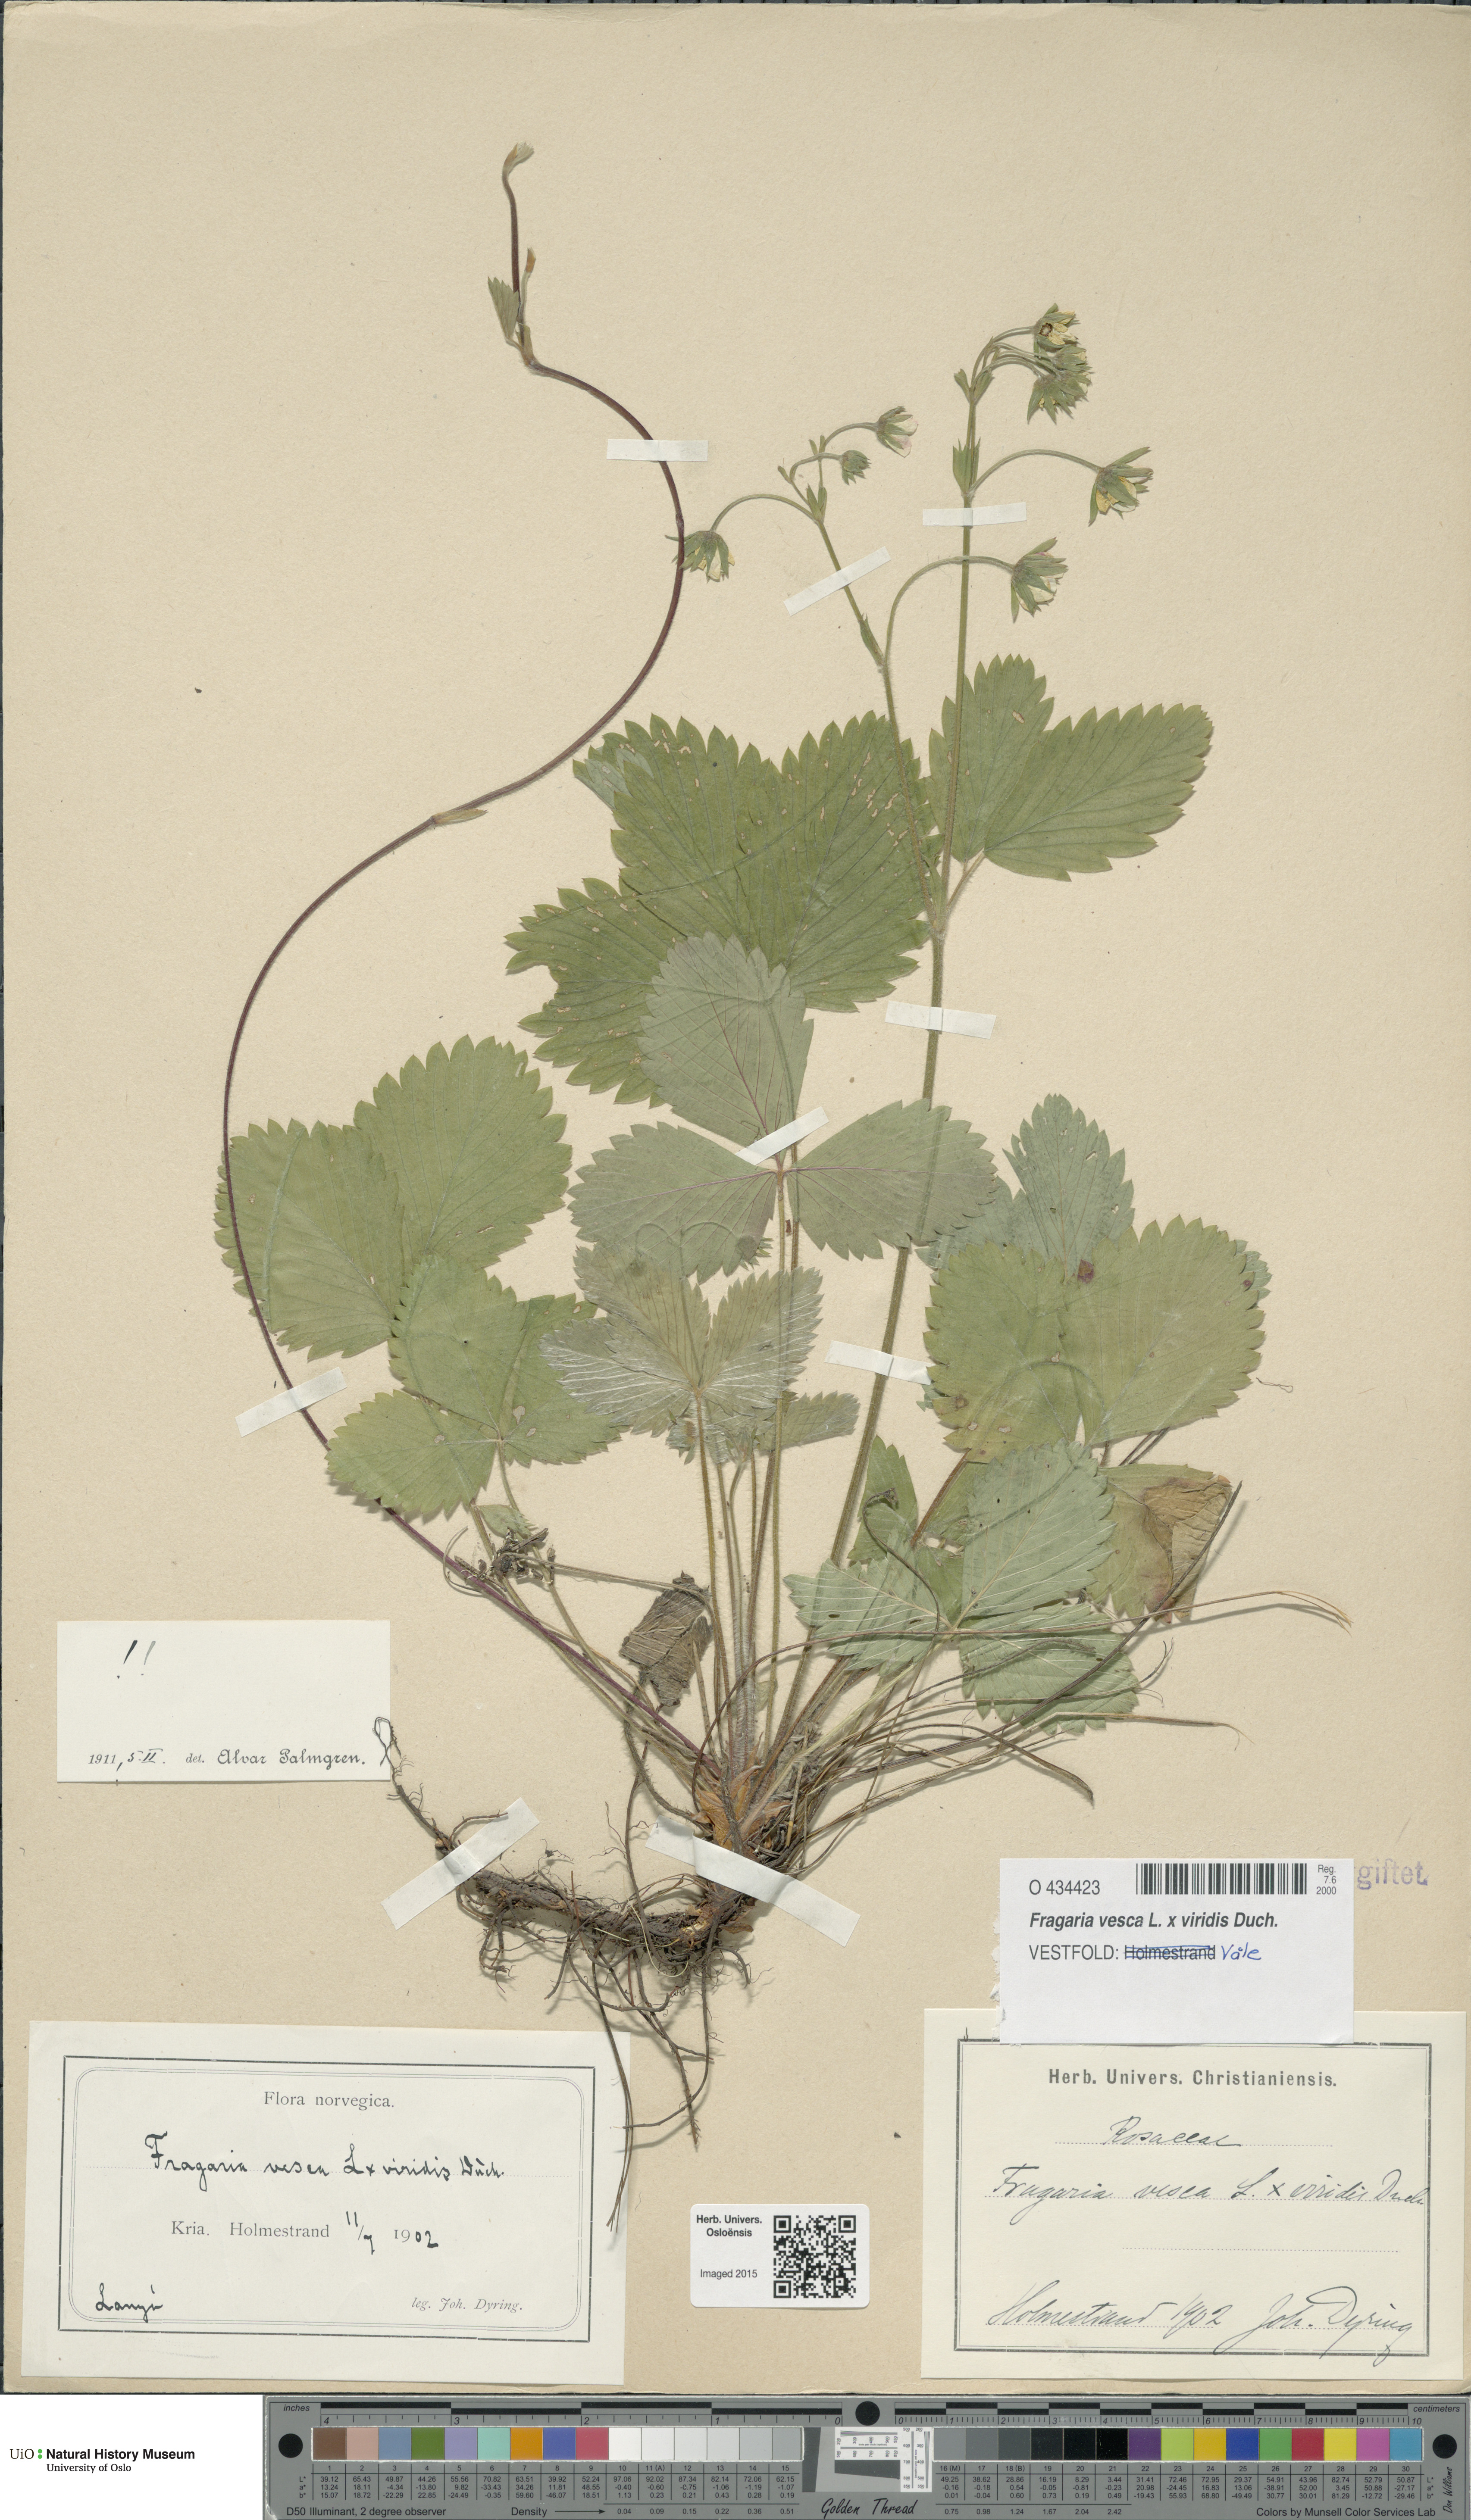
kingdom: Plantae
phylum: Tracheophyta
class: Magnoliopsida
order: Rosales
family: Rosaceae
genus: Fragaria
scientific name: Fragaria
